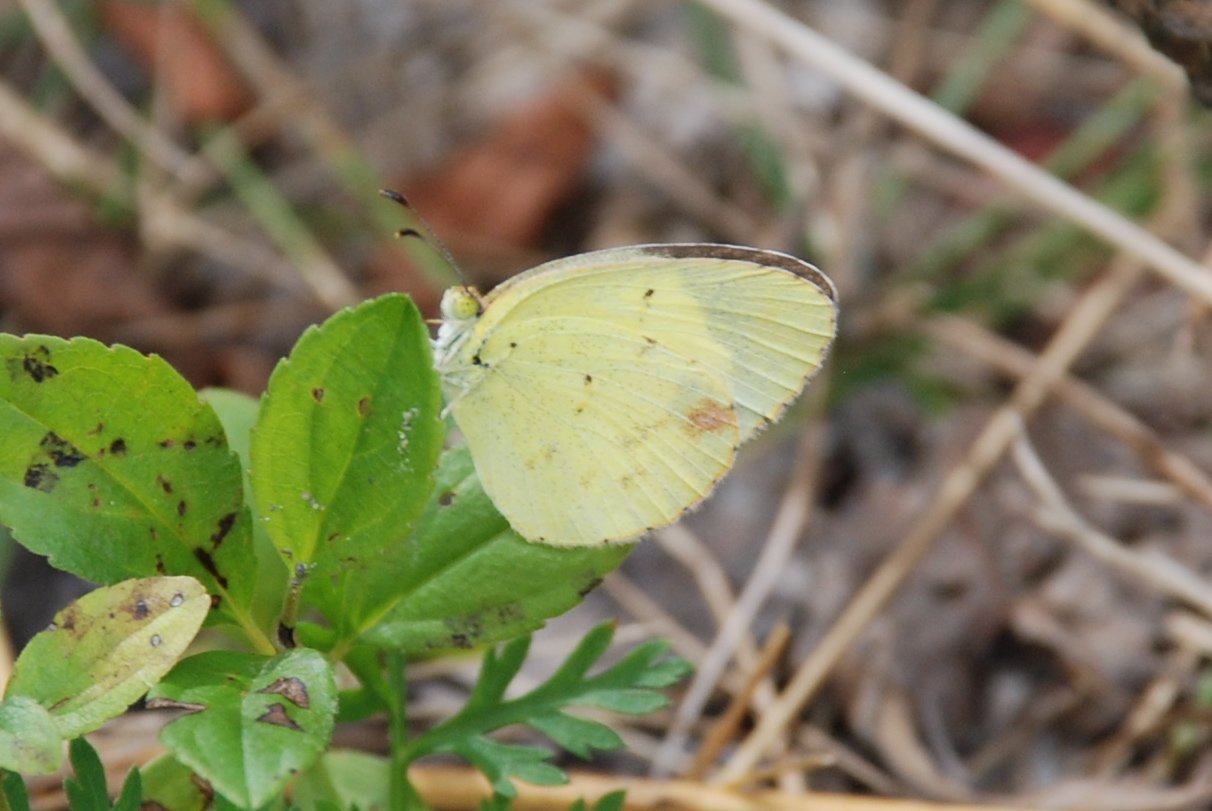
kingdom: Animalia
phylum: Arthropoda
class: Insecta
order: Lepidoptera
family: Pieridae
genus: Pyrisitia
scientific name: Pyrisitia lisa
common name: Little Yellow
